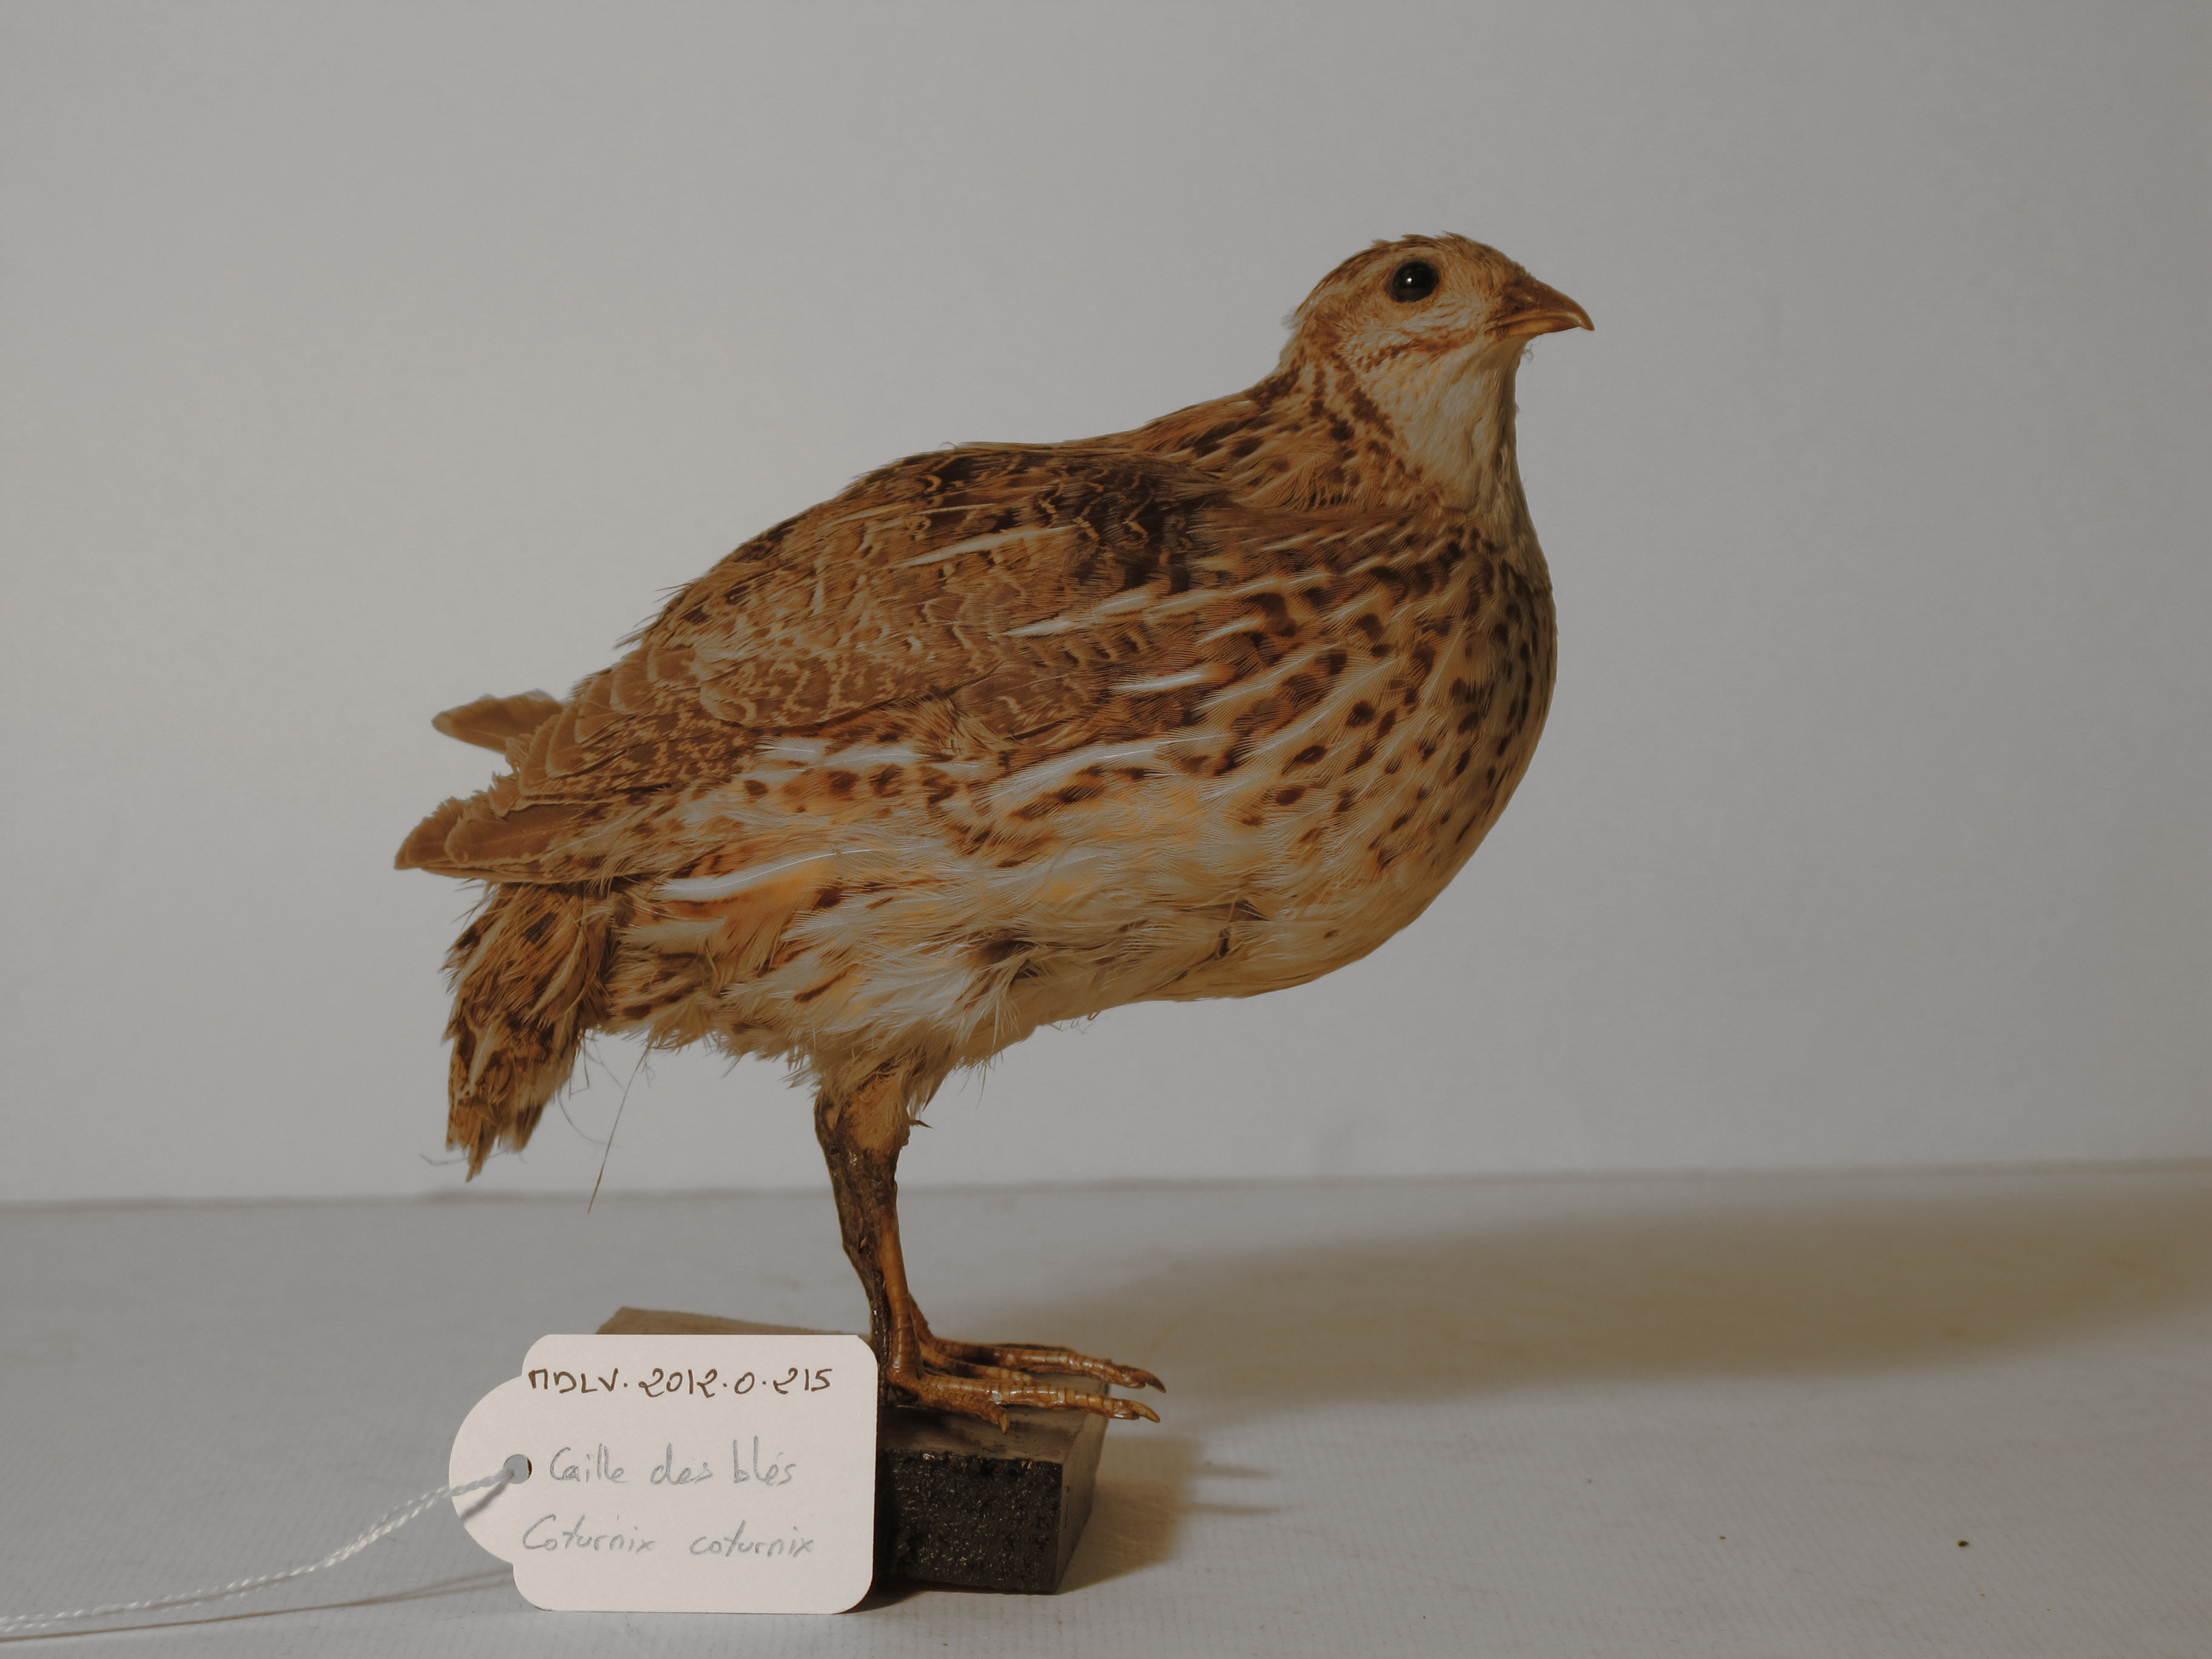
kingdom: Animalia
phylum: Chordata
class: Aves
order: Galliformes
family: Phasianidae
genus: Coturnix
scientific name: Coturnix coturnix
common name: Common Quail
